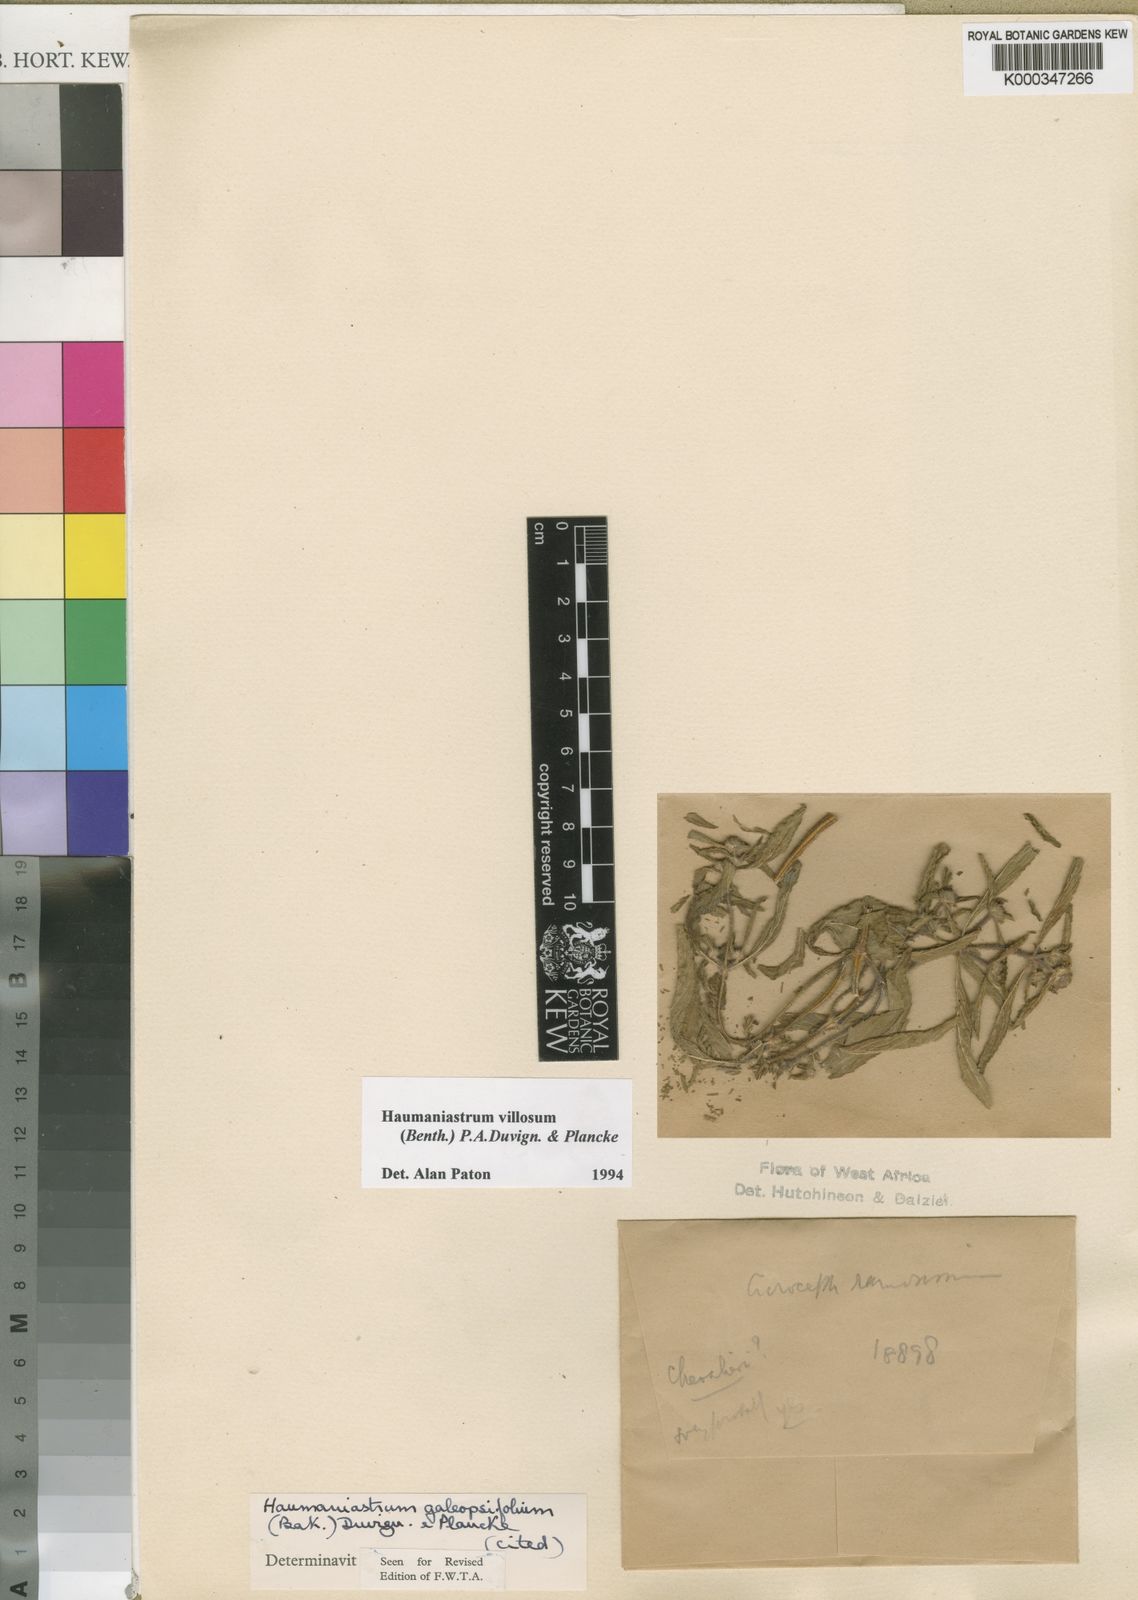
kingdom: Plantae
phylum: Tracheophyta
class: Magnoliopsida
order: Lamiales
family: Lamiaceae
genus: Haumaniastrum
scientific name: Haumaniastrum villosum
